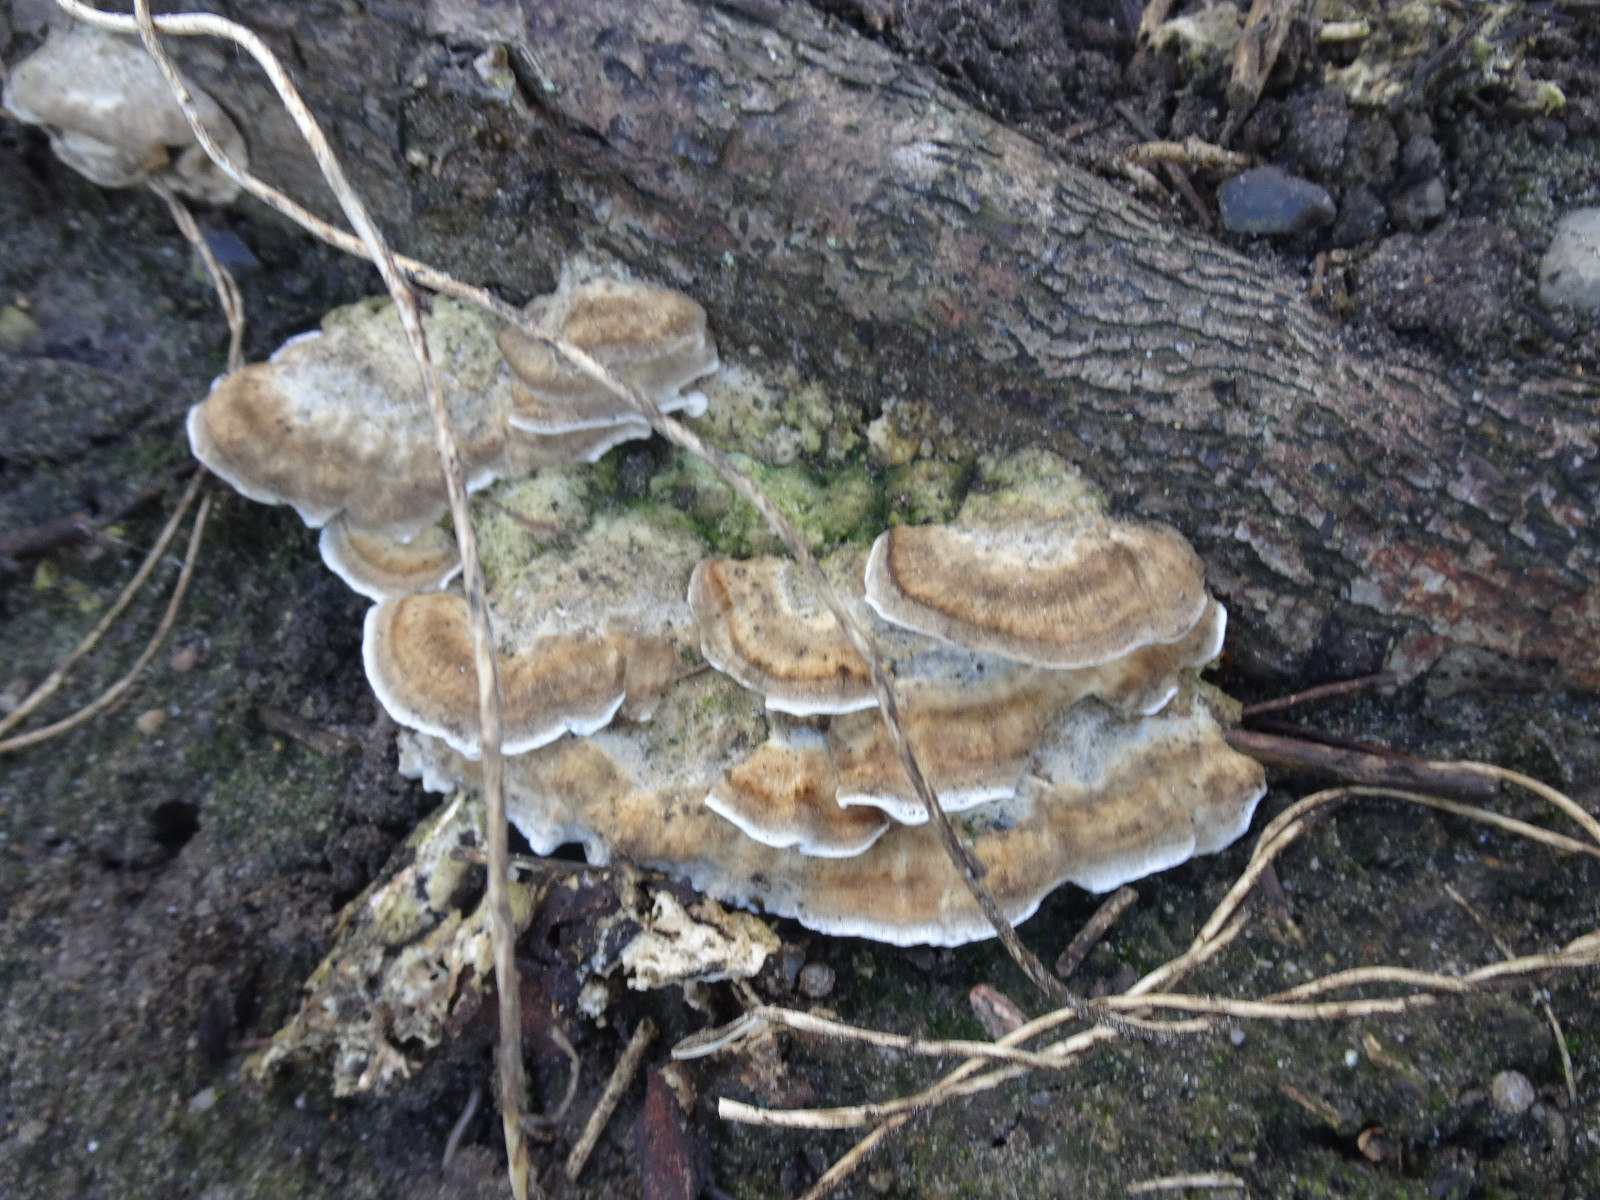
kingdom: Fungi
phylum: Basidiomycota
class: Agaricomycetes
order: Polyporales
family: Phanerochaetaceae
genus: Bjerkandera
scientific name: Bjerkandera adusta
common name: sveden sodporesvamp
